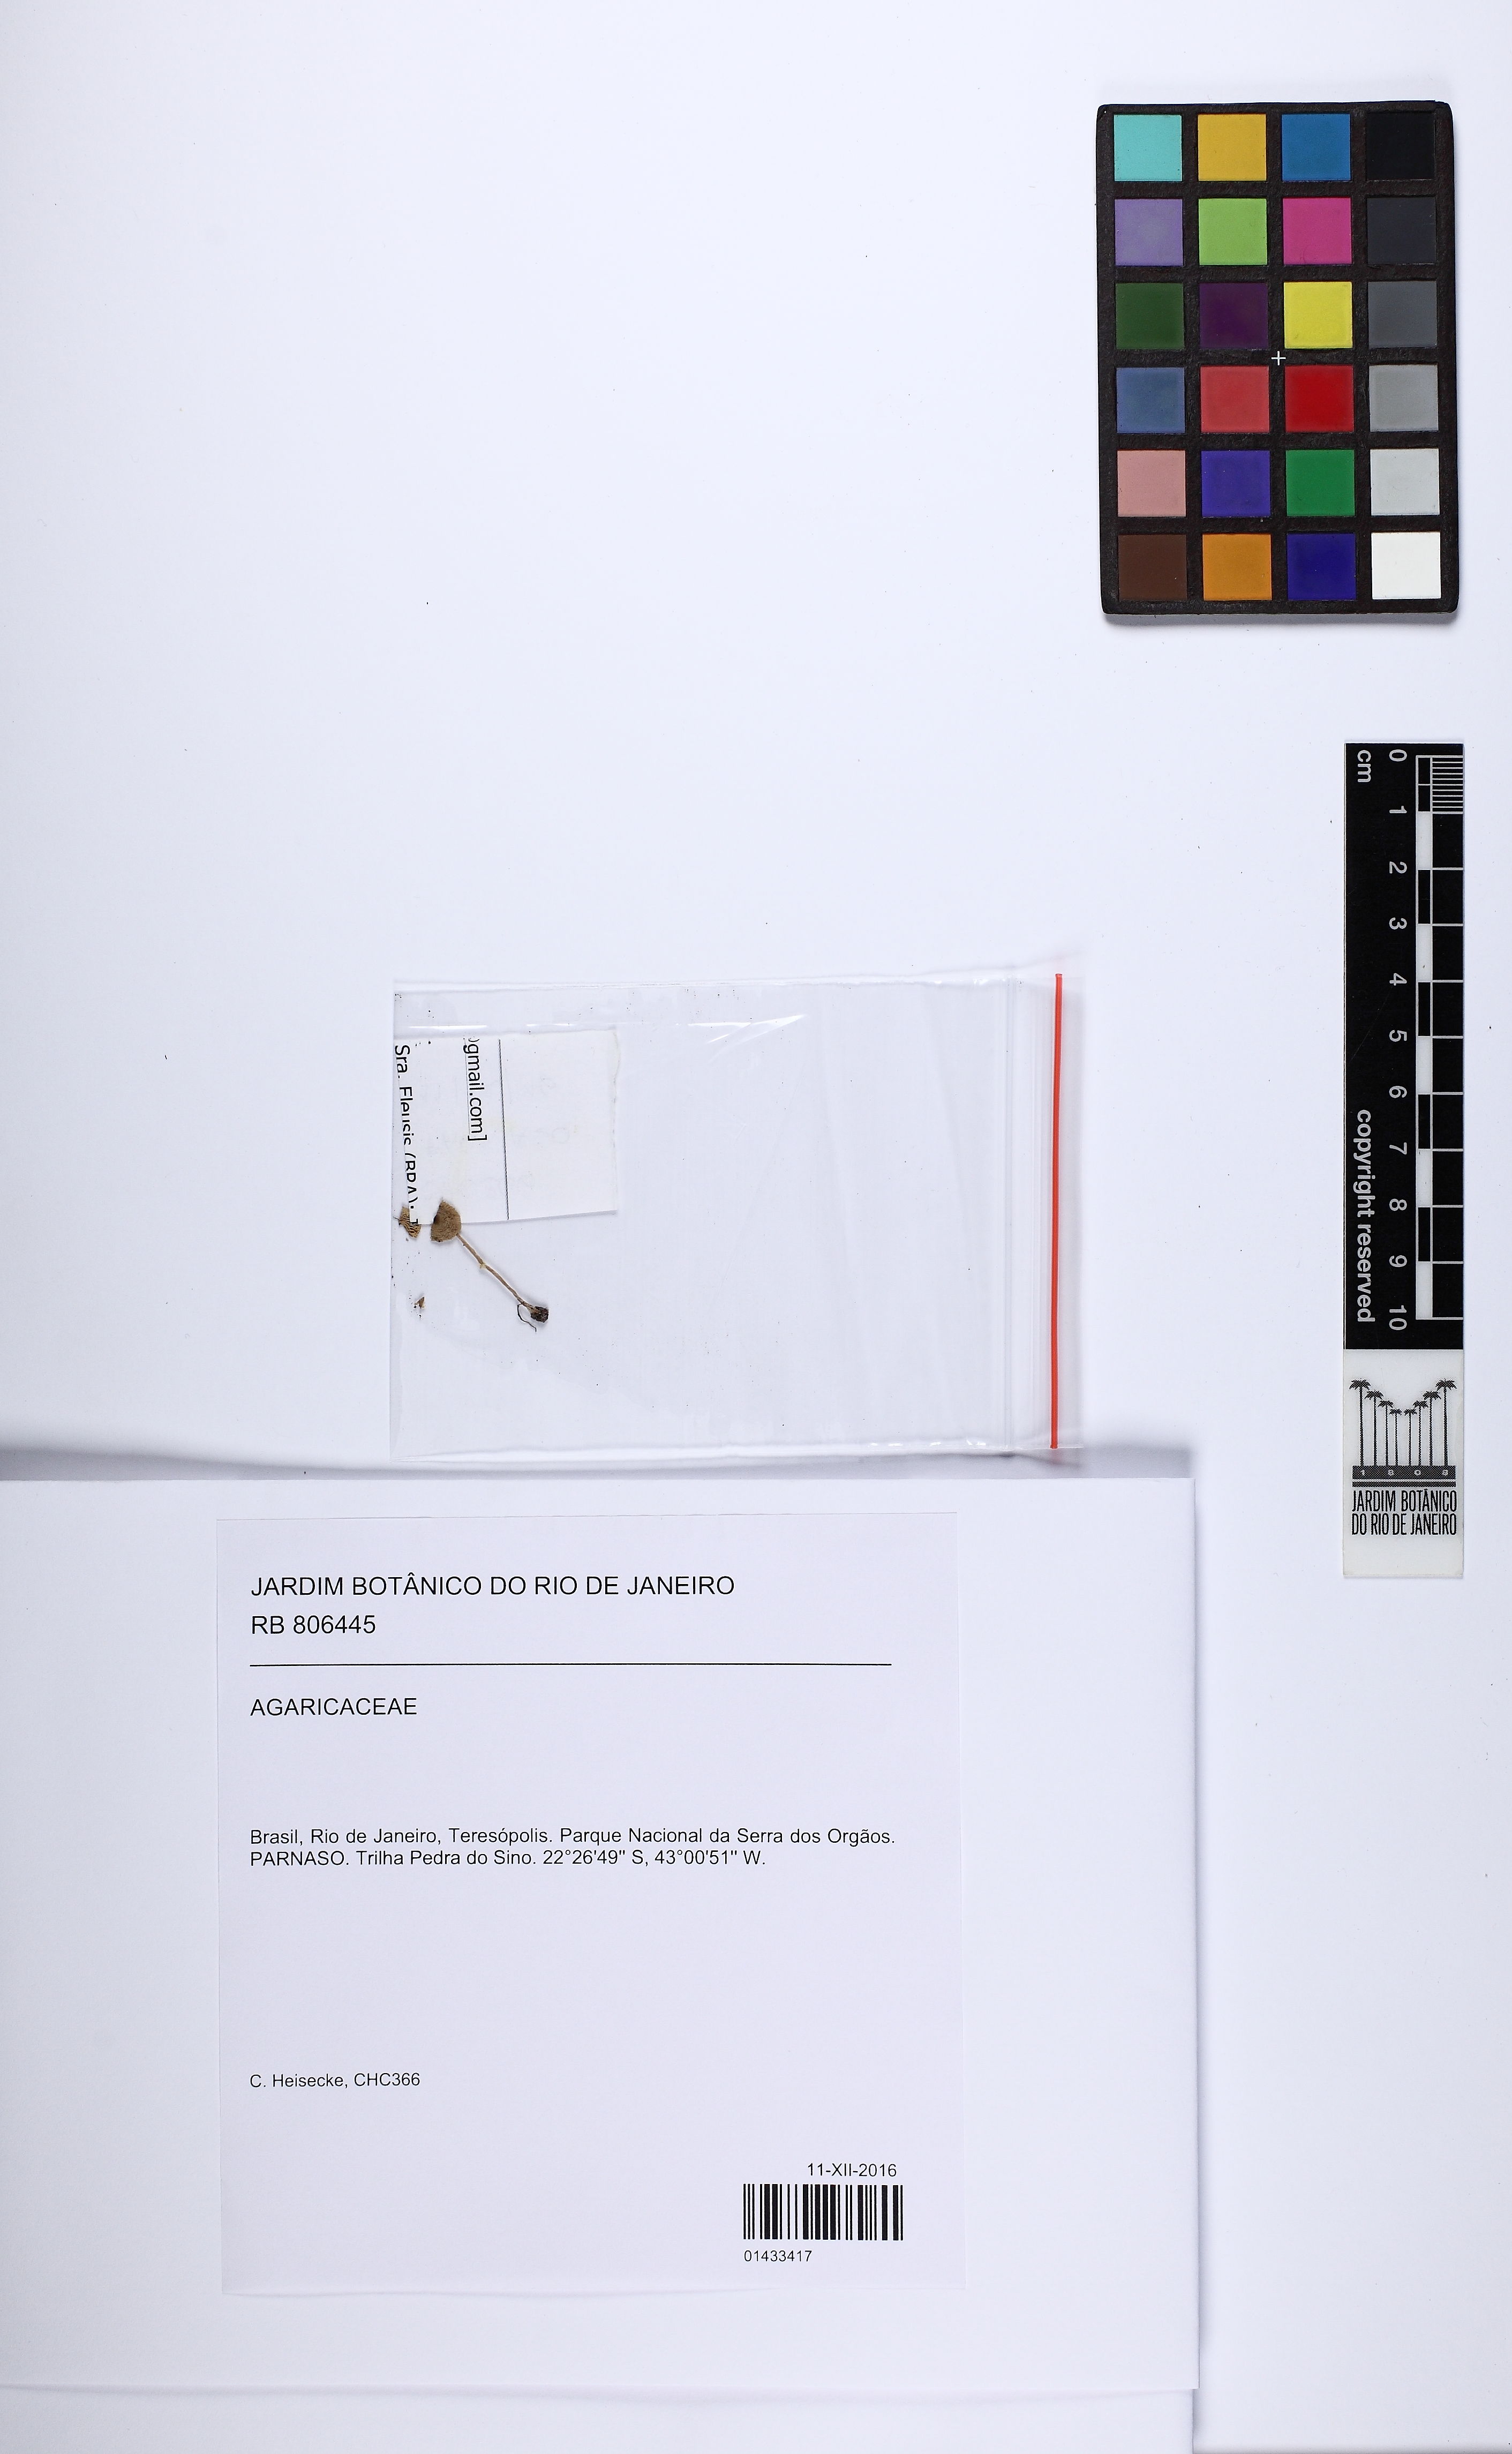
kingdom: Fungi
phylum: Basidiomycota
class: Agaricomycetes
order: Agaricales
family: Agaricaceae
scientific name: Agaricaceae
